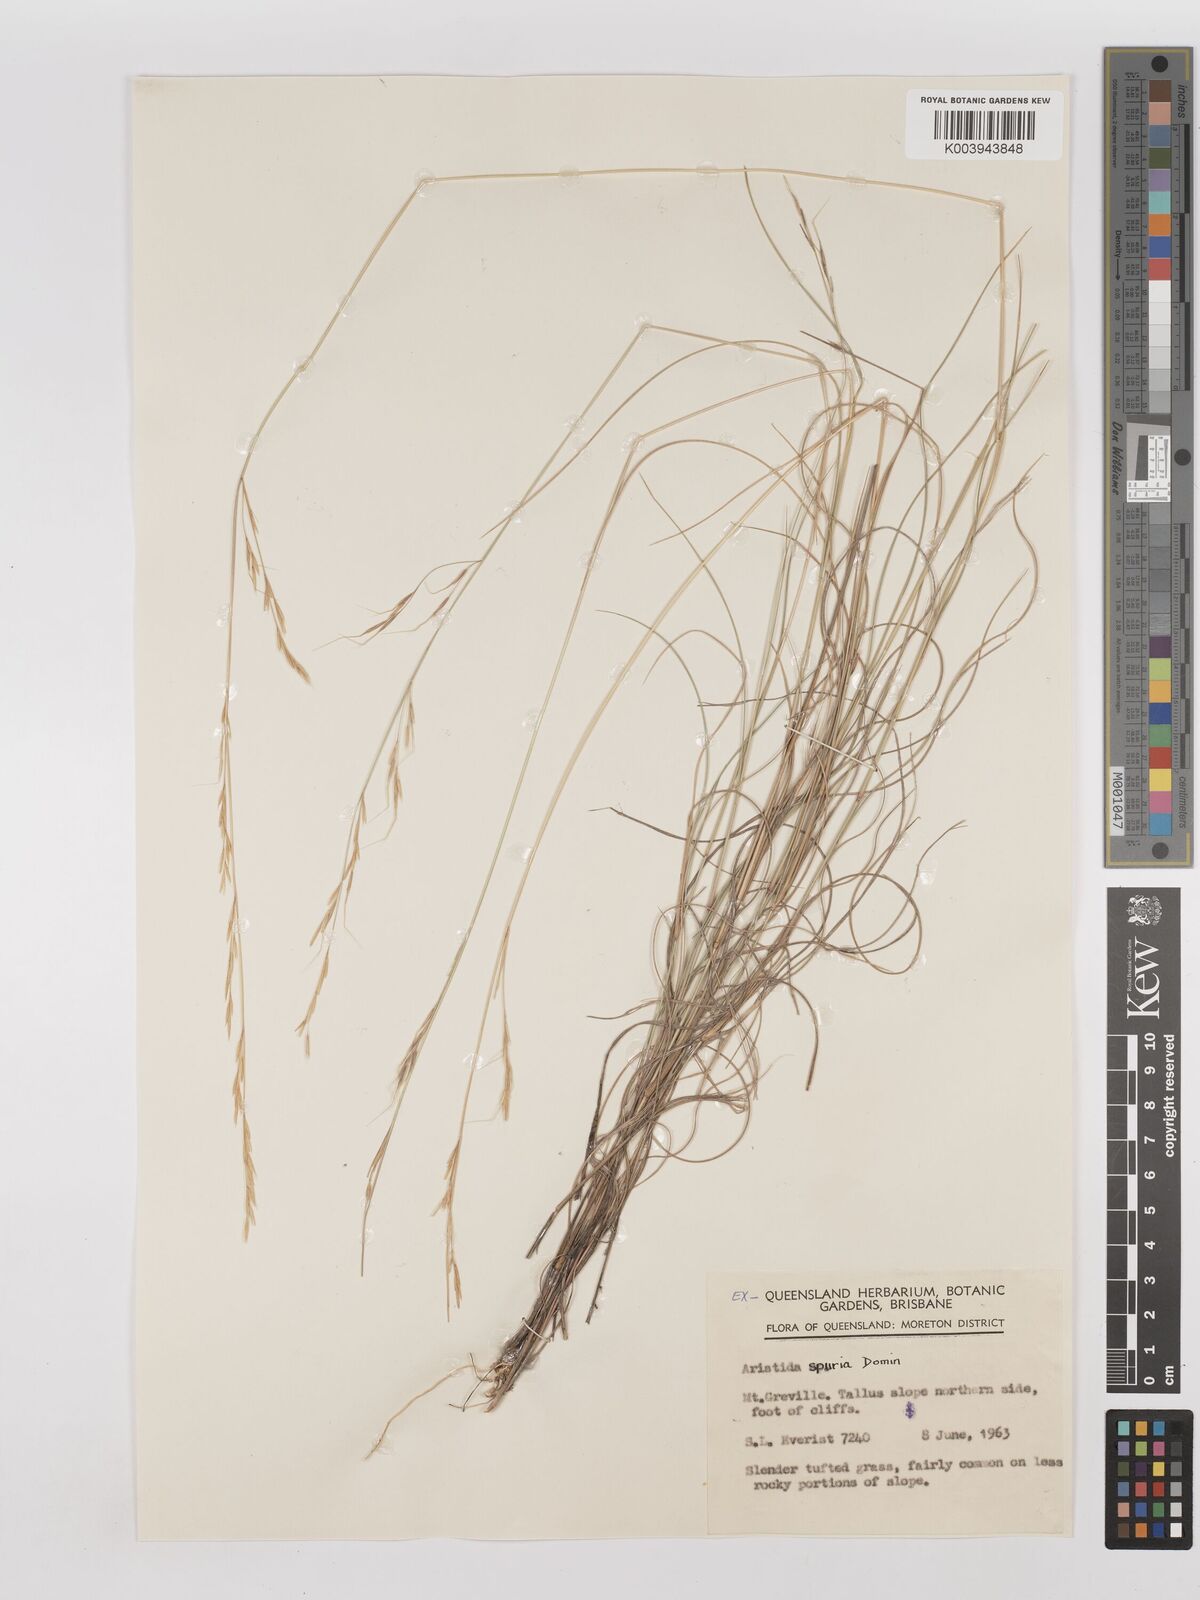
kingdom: Plantae
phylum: Tracheophyta
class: Liliopsida
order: Poales
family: Poaceae
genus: Aristida
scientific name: Aristida spuria
